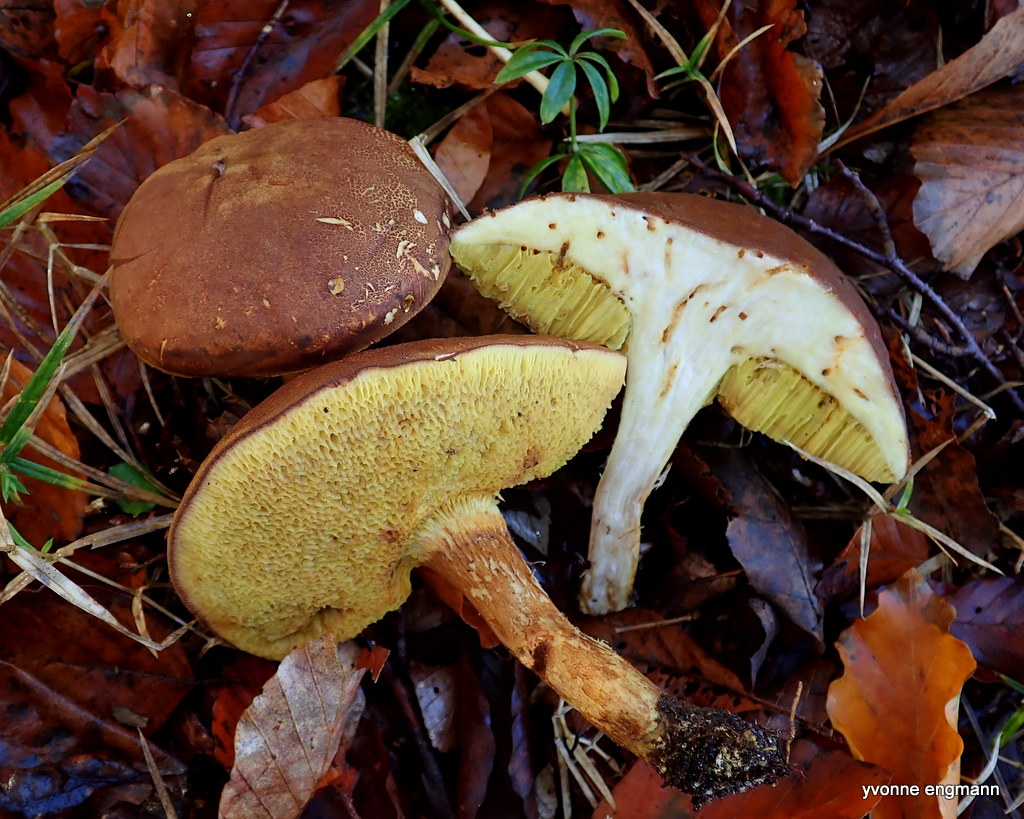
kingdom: Fungi
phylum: Basidiomycota
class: Agaricomycetes
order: Boletales
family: Boletaceae
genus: Xerocomus
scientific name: Xerocomus ferrugineus
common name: vaskeskinds-rørhat
